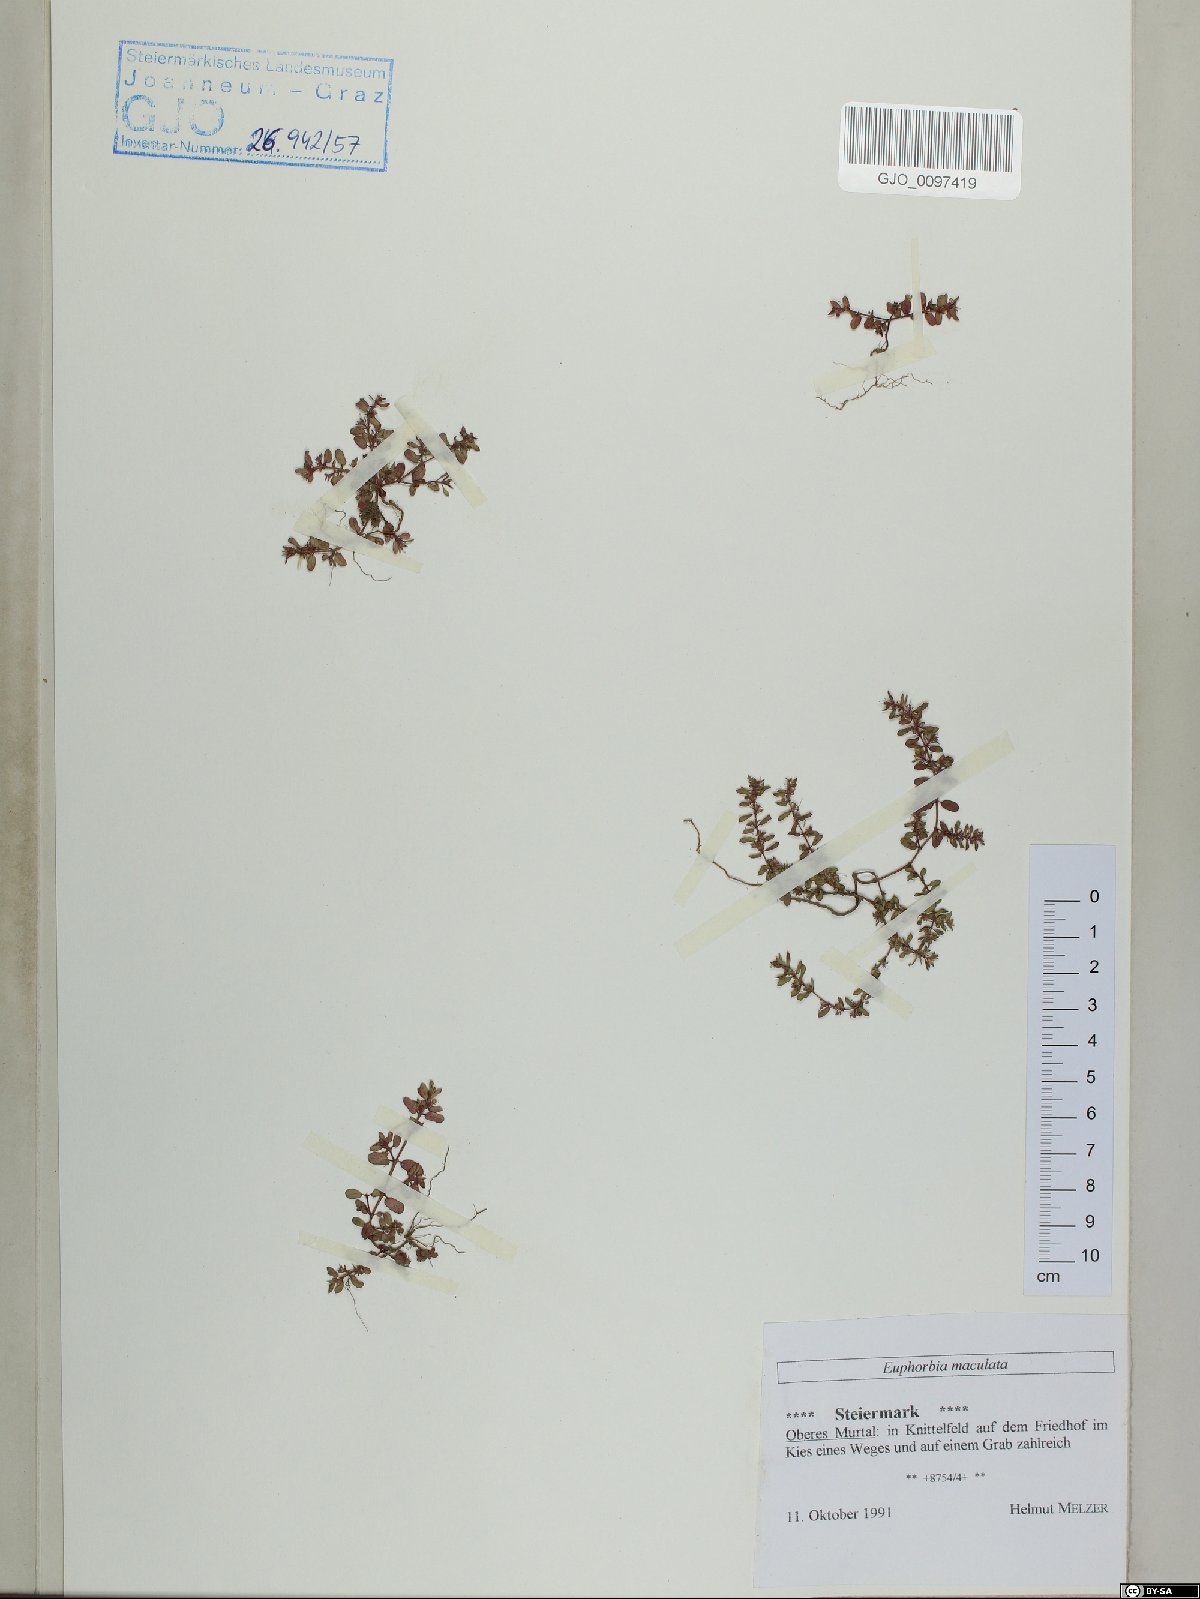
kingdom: Plantae
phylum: Tracheophyta
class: Magnoliopsida
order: Malpighiales
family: Euphorbiaceae
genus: Euphorbia
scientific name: Euphorbia maculata
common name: Spotted spurge
